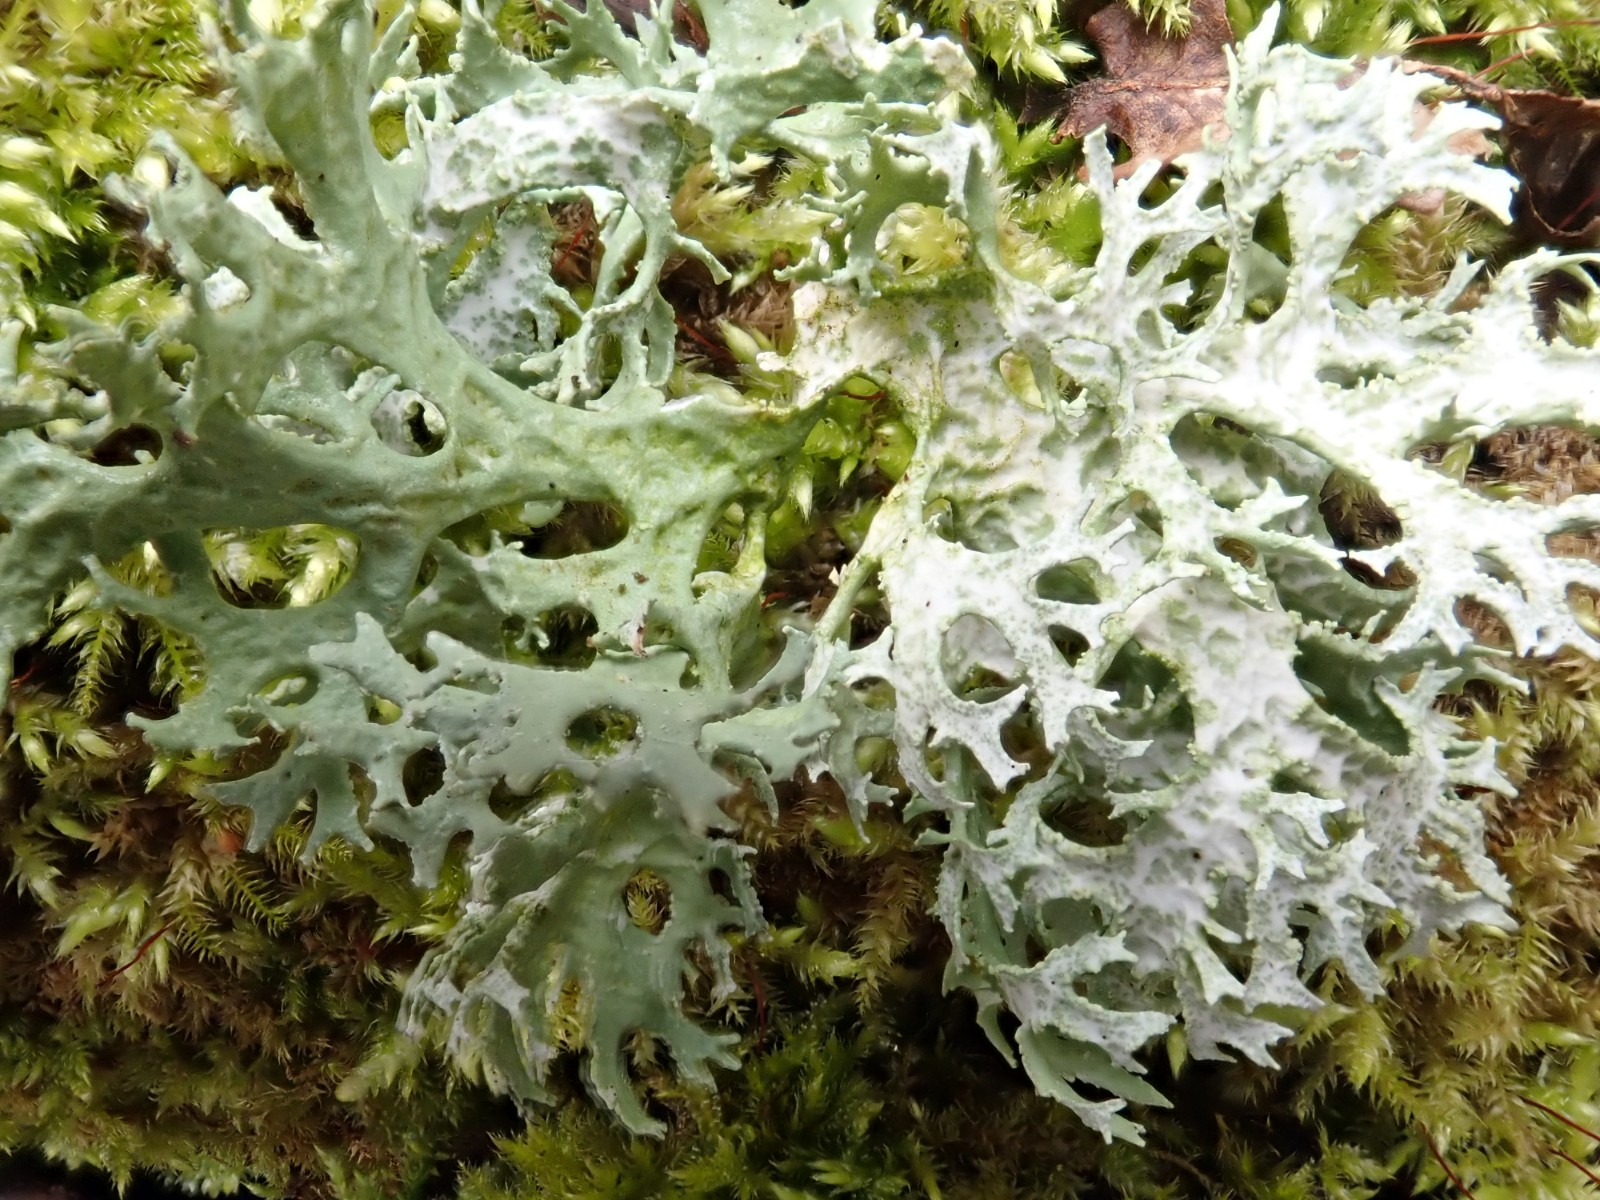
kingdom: Fungi
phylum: Ascomycota
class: Lecanoromycetes
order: Lecanorales
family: Parmeliaceae
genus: Evernia
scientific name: Evernia prunastri
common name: almindelig slåenlav
